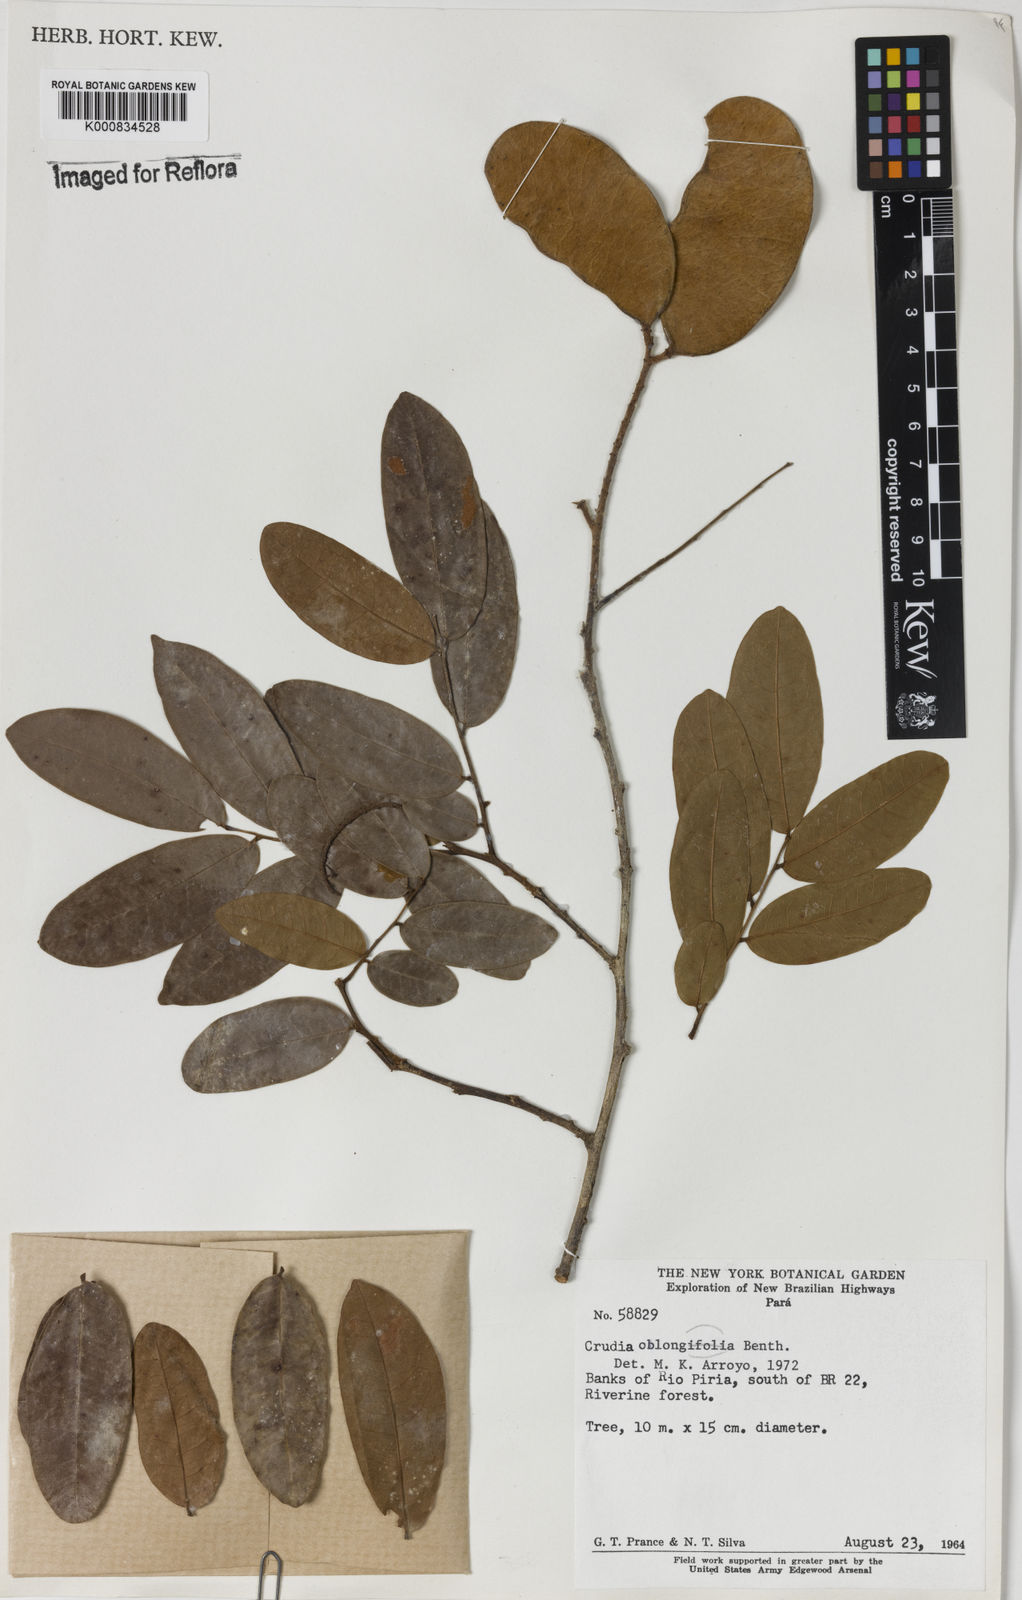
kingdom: Plantae
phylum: Tracheophyta
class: Magnoliopsida
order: Fabales
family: Fabaceae
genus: Crudia
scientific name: Crudia glaberrima
